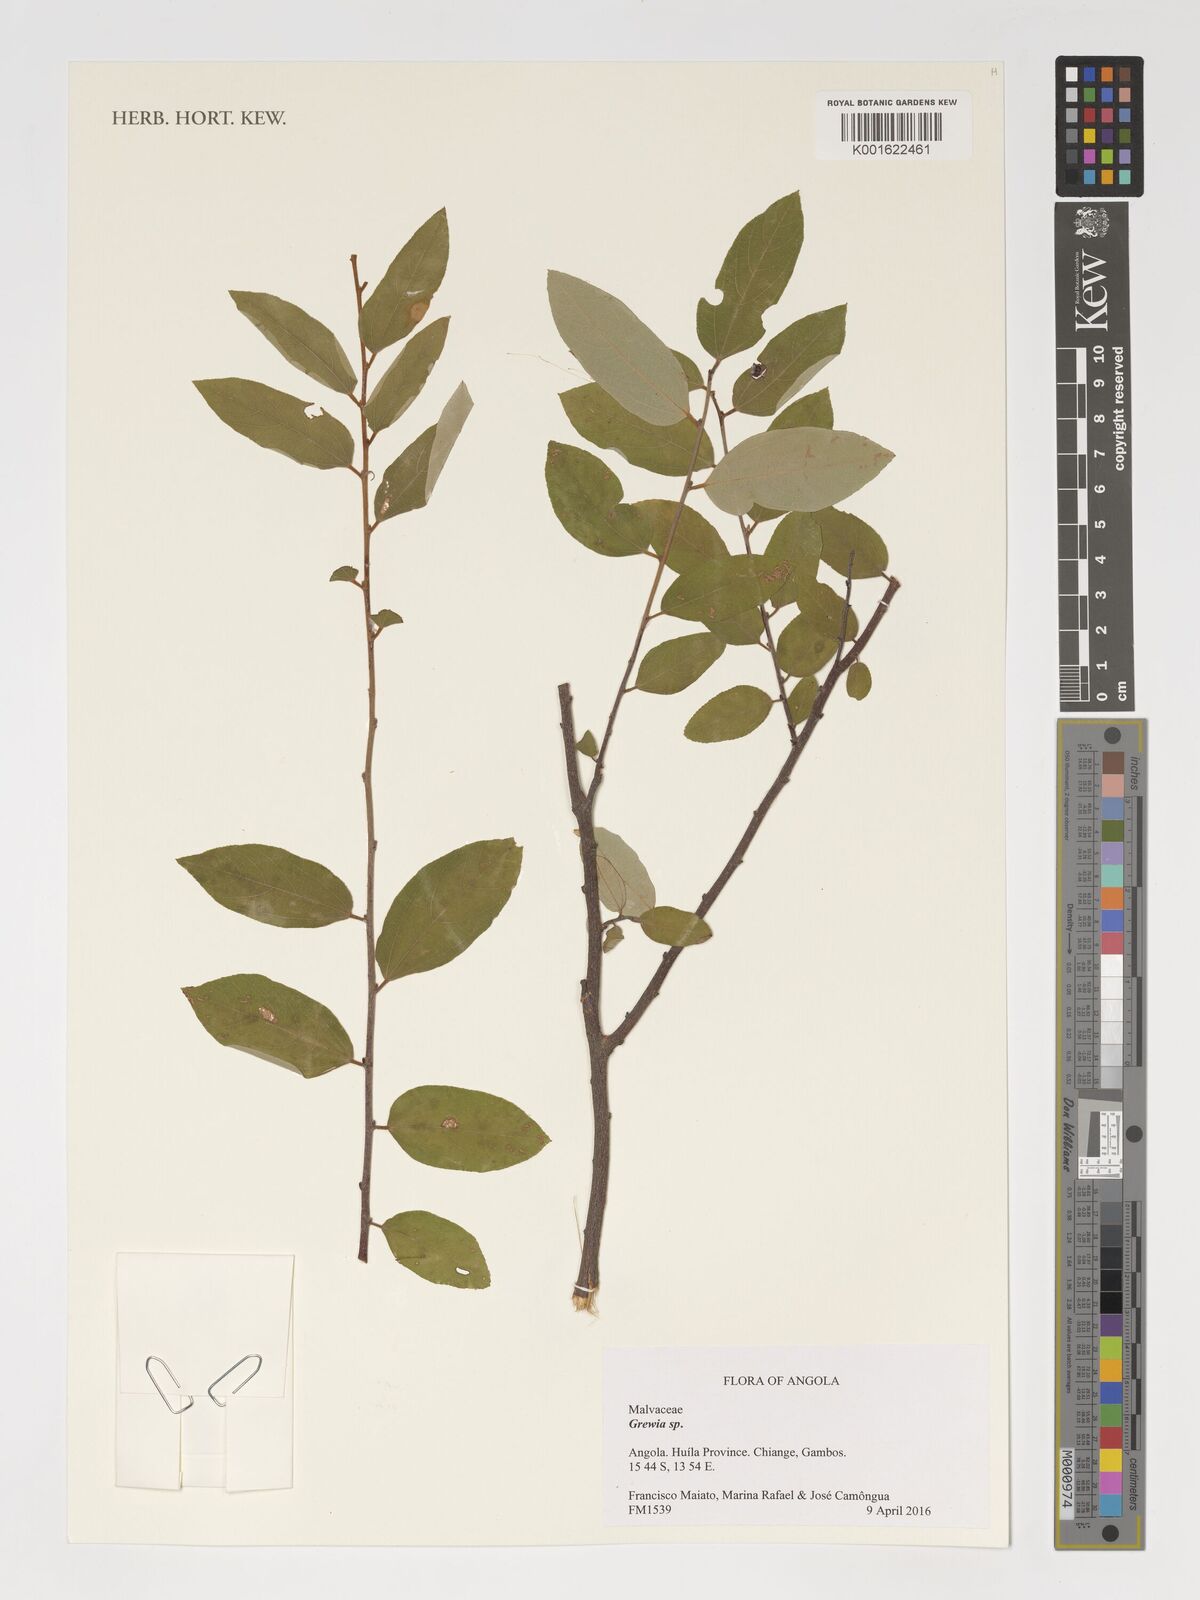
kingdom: Plantae
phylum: Tracheophyta
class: Magnoliopsida
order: Malvales
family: Malvaceae
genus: Grewia
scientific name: Grewia
